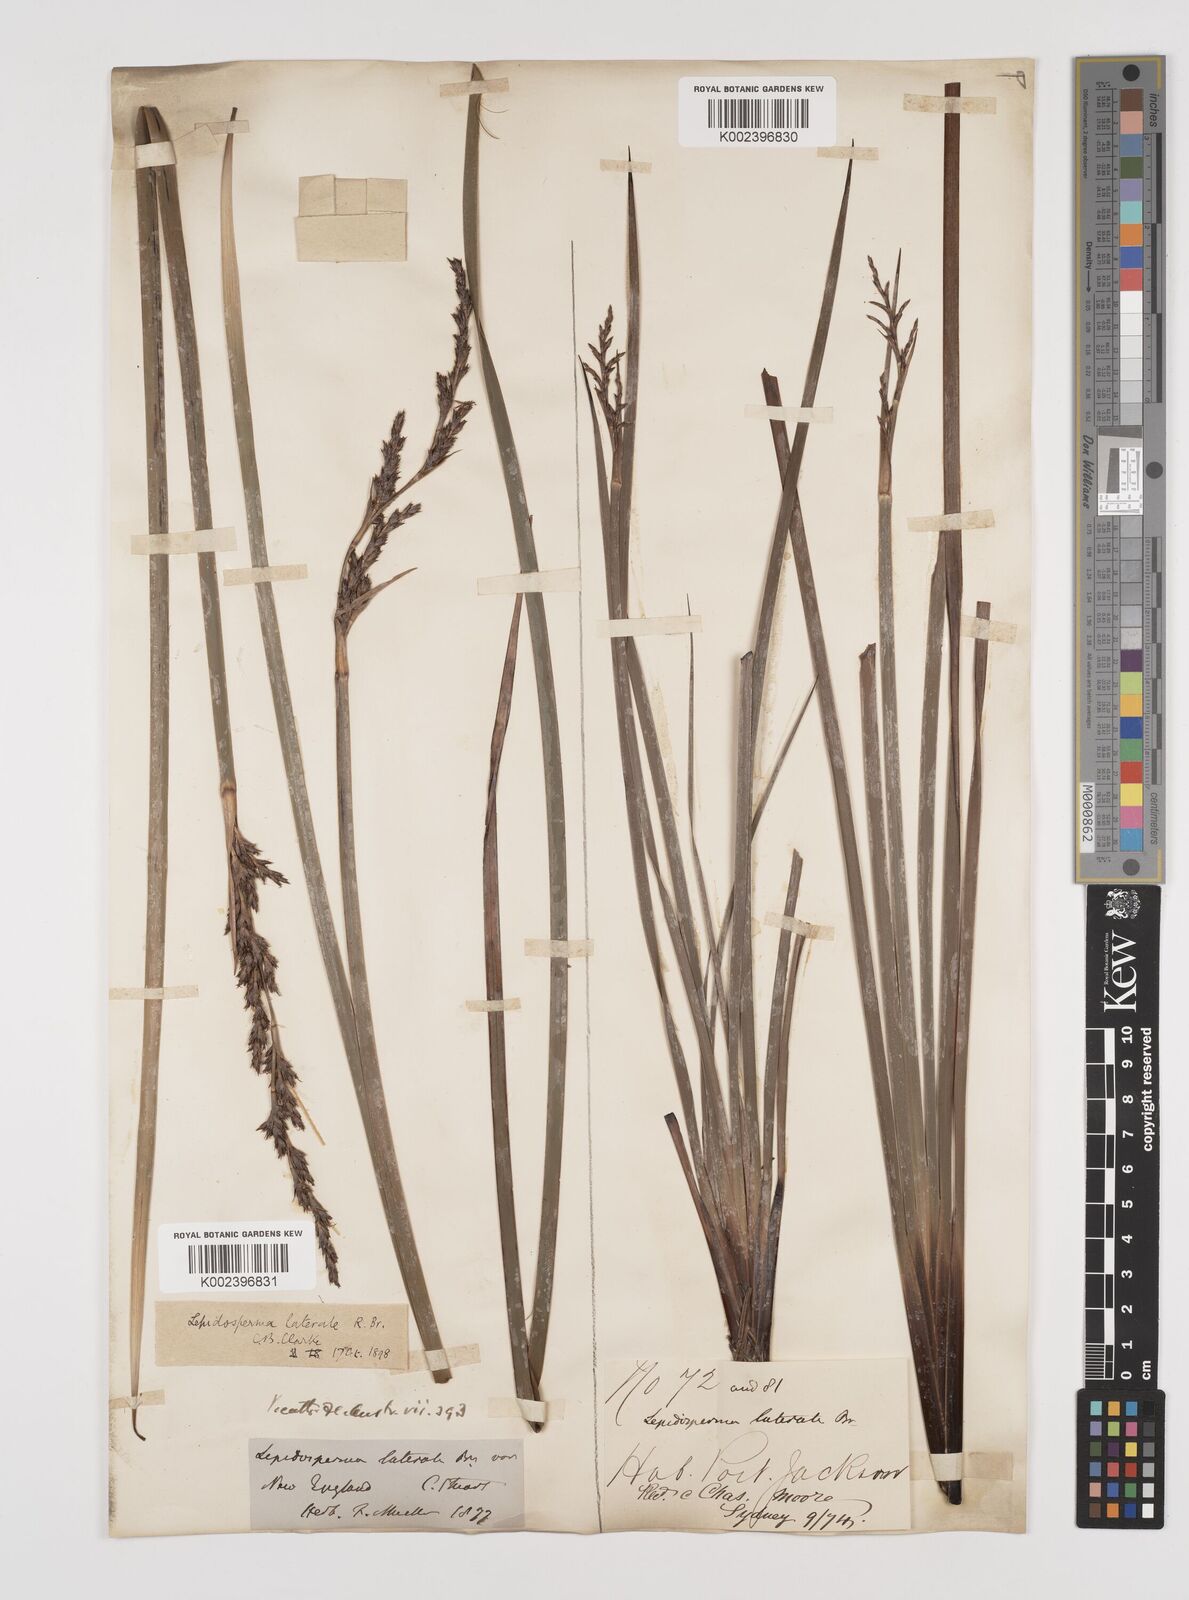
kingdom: Plantae
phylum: Tracheophyta
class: Liliopsida
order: Poales
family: Cyperaceae
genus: Lepidosperma
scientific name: Lepidosperma laterale
